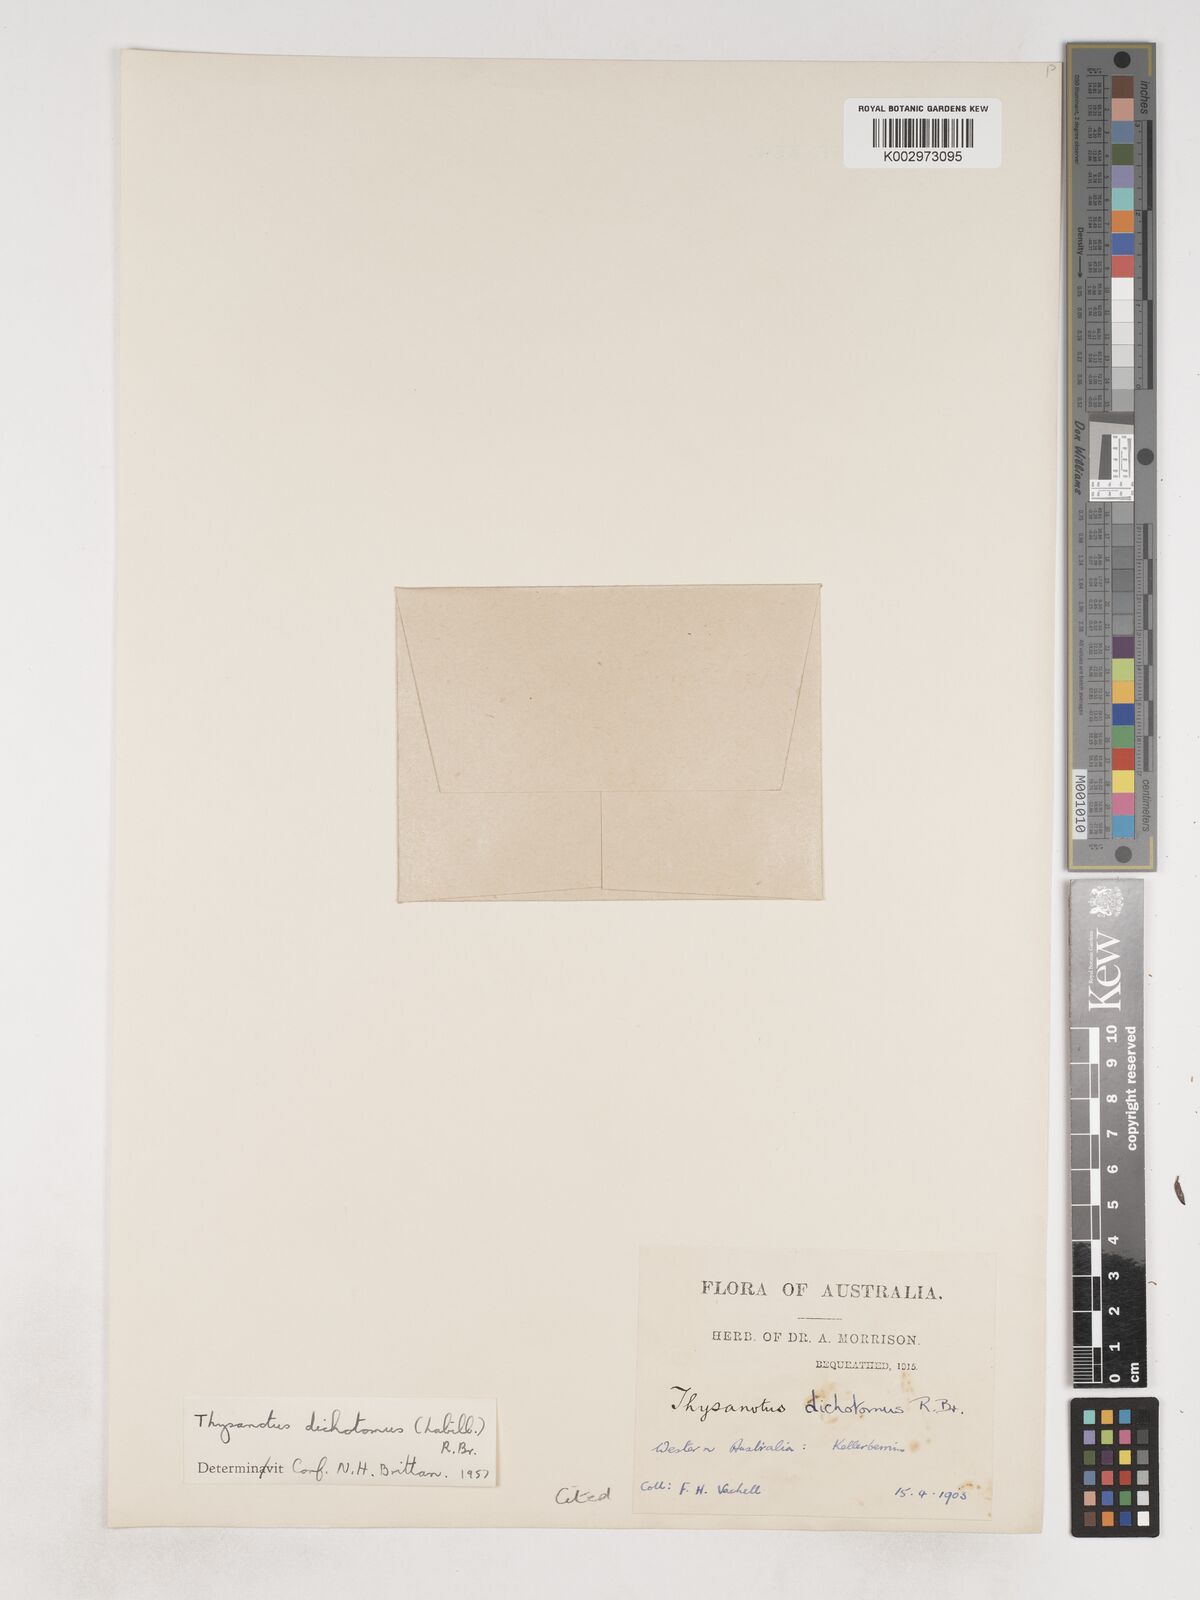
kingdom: Plantae
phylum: Tracheophyta
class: Liliopsida
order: Asparagales
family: Asparagaceae
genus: Thysanotus
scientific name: Thysanotus dichotomus
